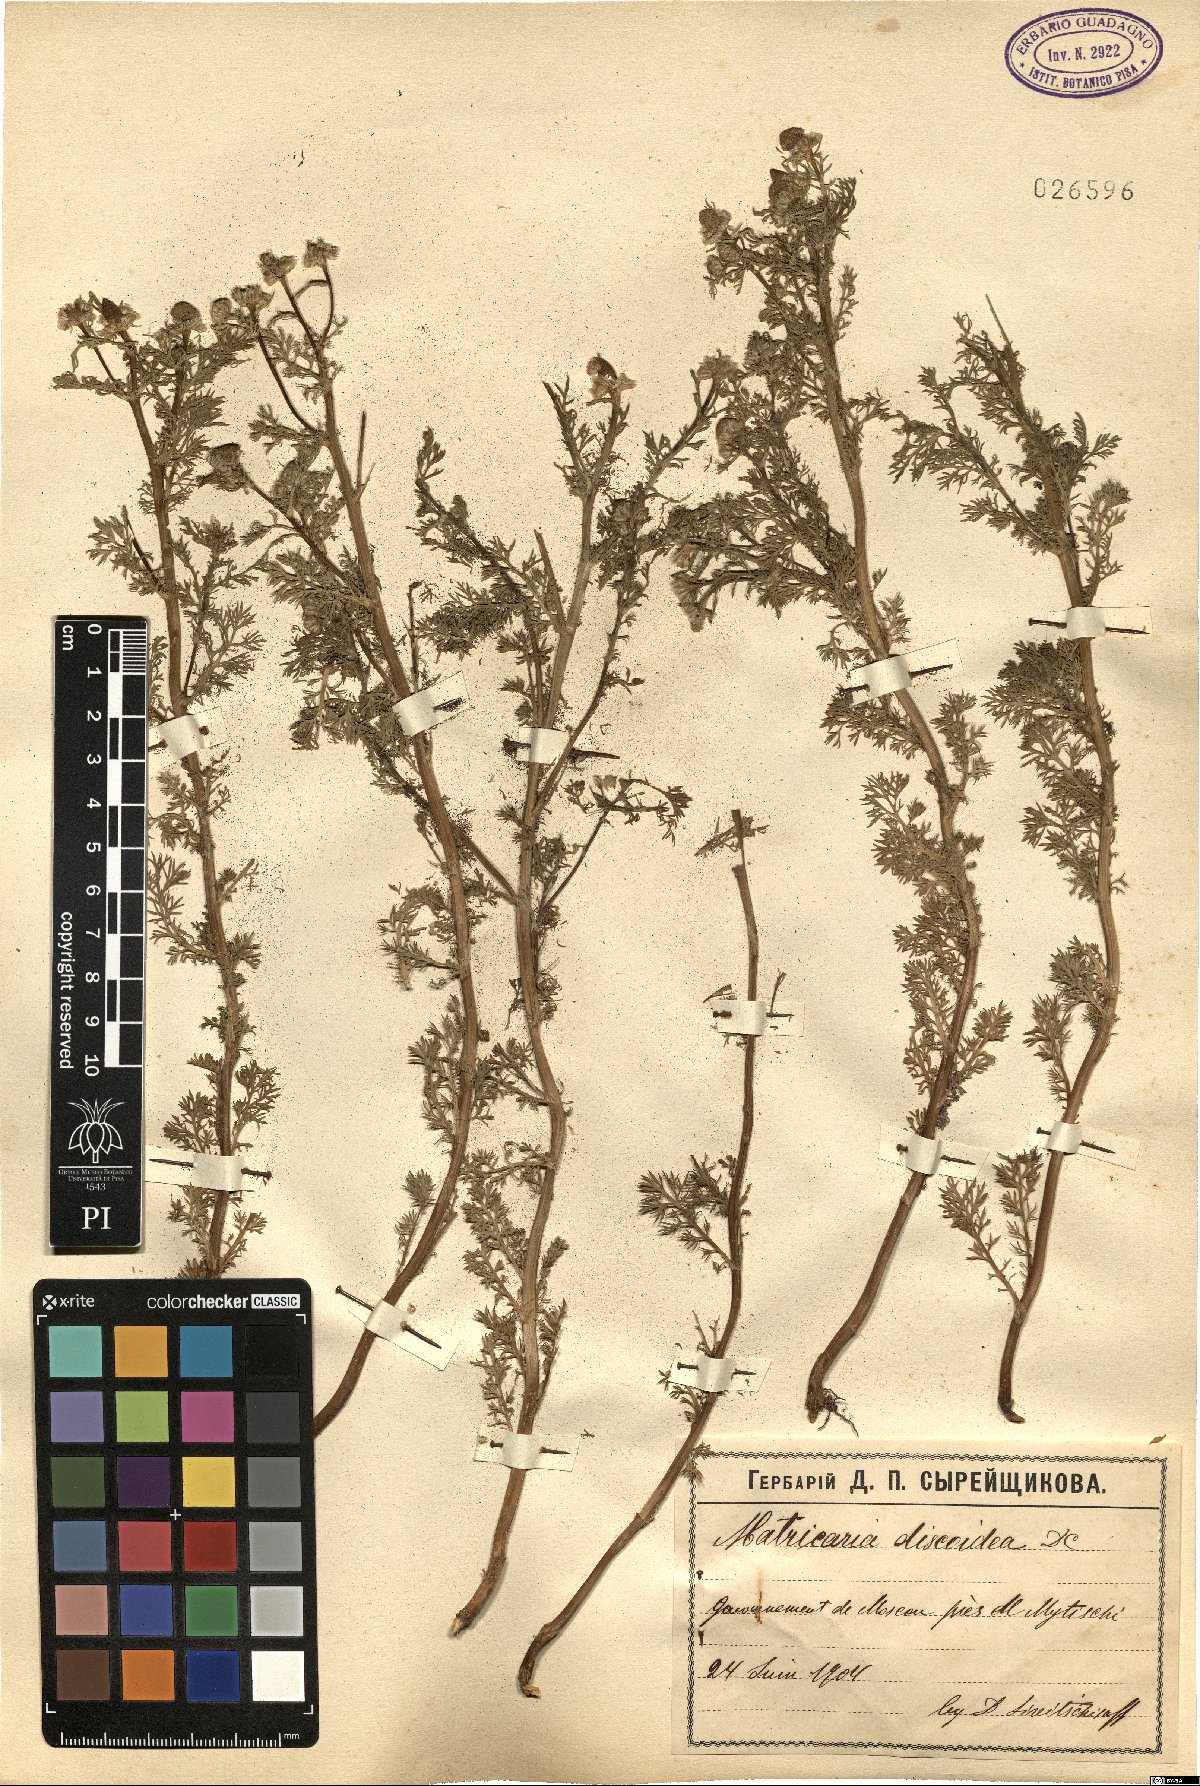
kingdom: Plantae
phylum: Tracheophyta
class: Magnoliopsida
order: Asterales
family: Asteraceae
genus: Matricaria
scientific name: Matricaria discoidea
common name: Disc mayweed
